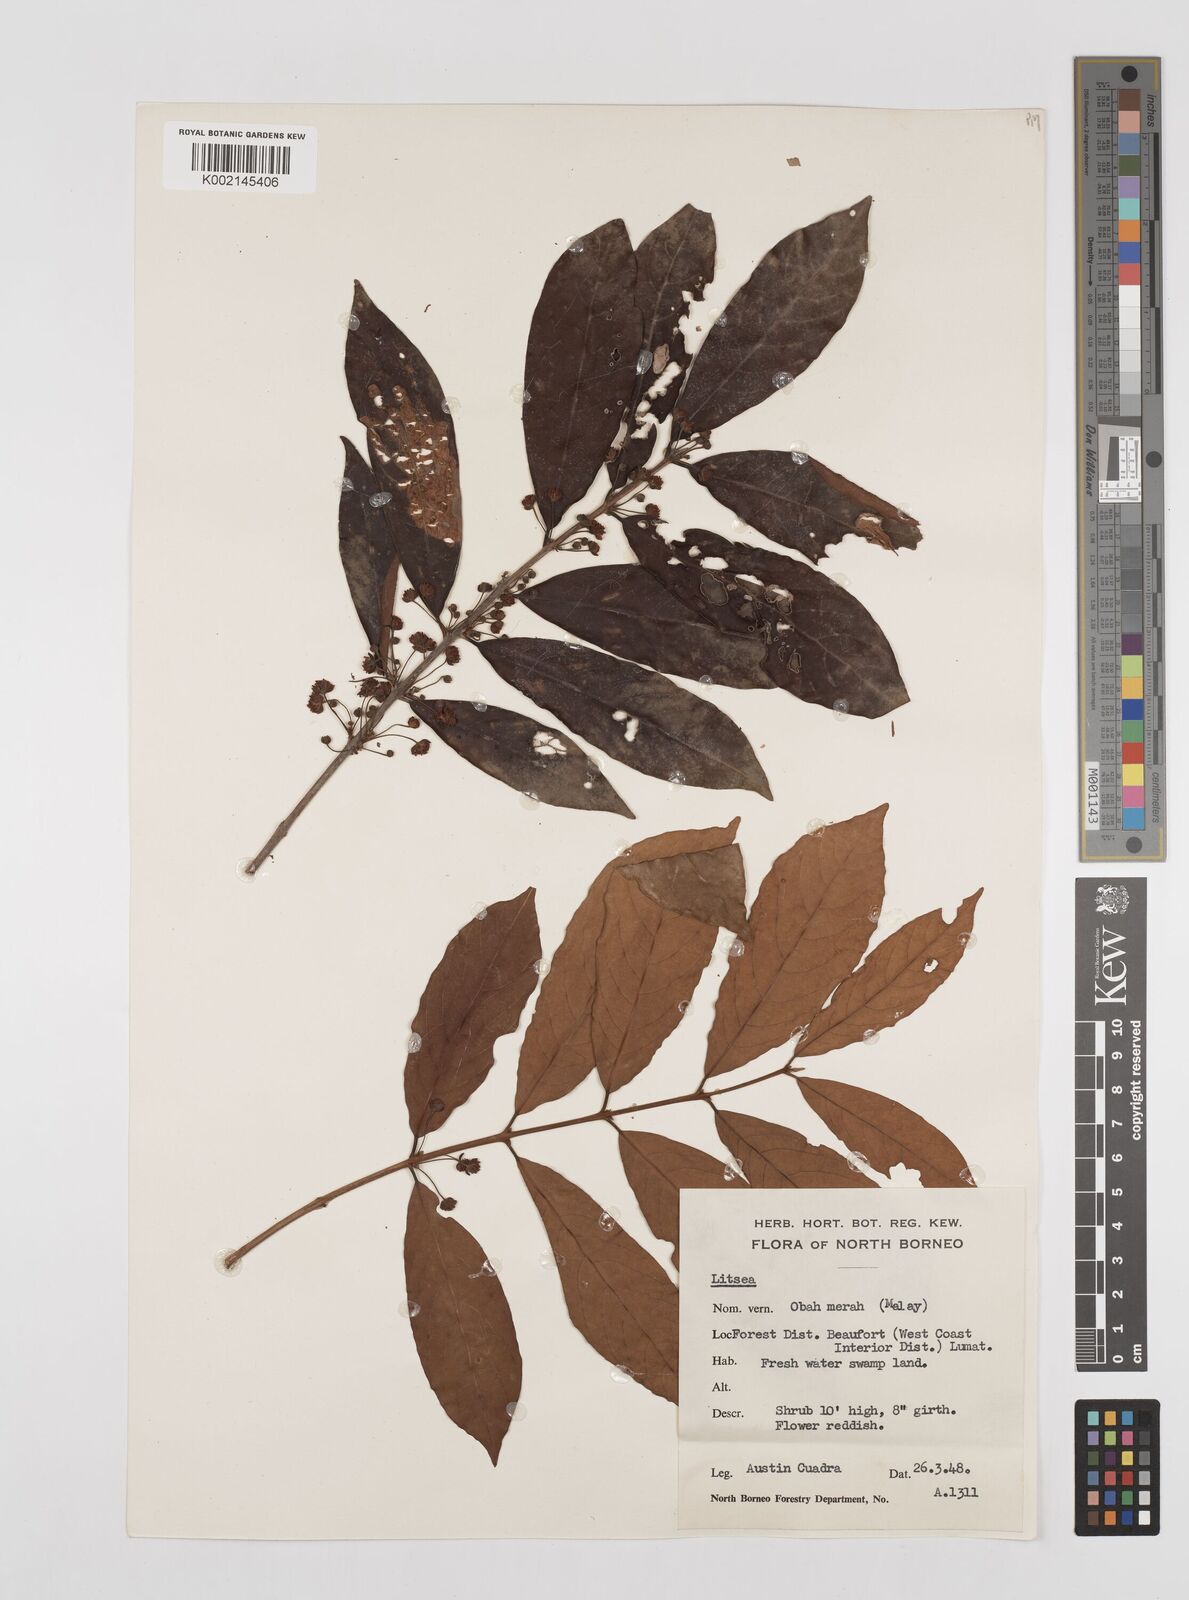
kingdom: Plantae
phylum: Tracheophyta
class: Magnoliopsida
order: Laurales
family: Lauraceae
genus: Litsea
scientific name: Litsea
